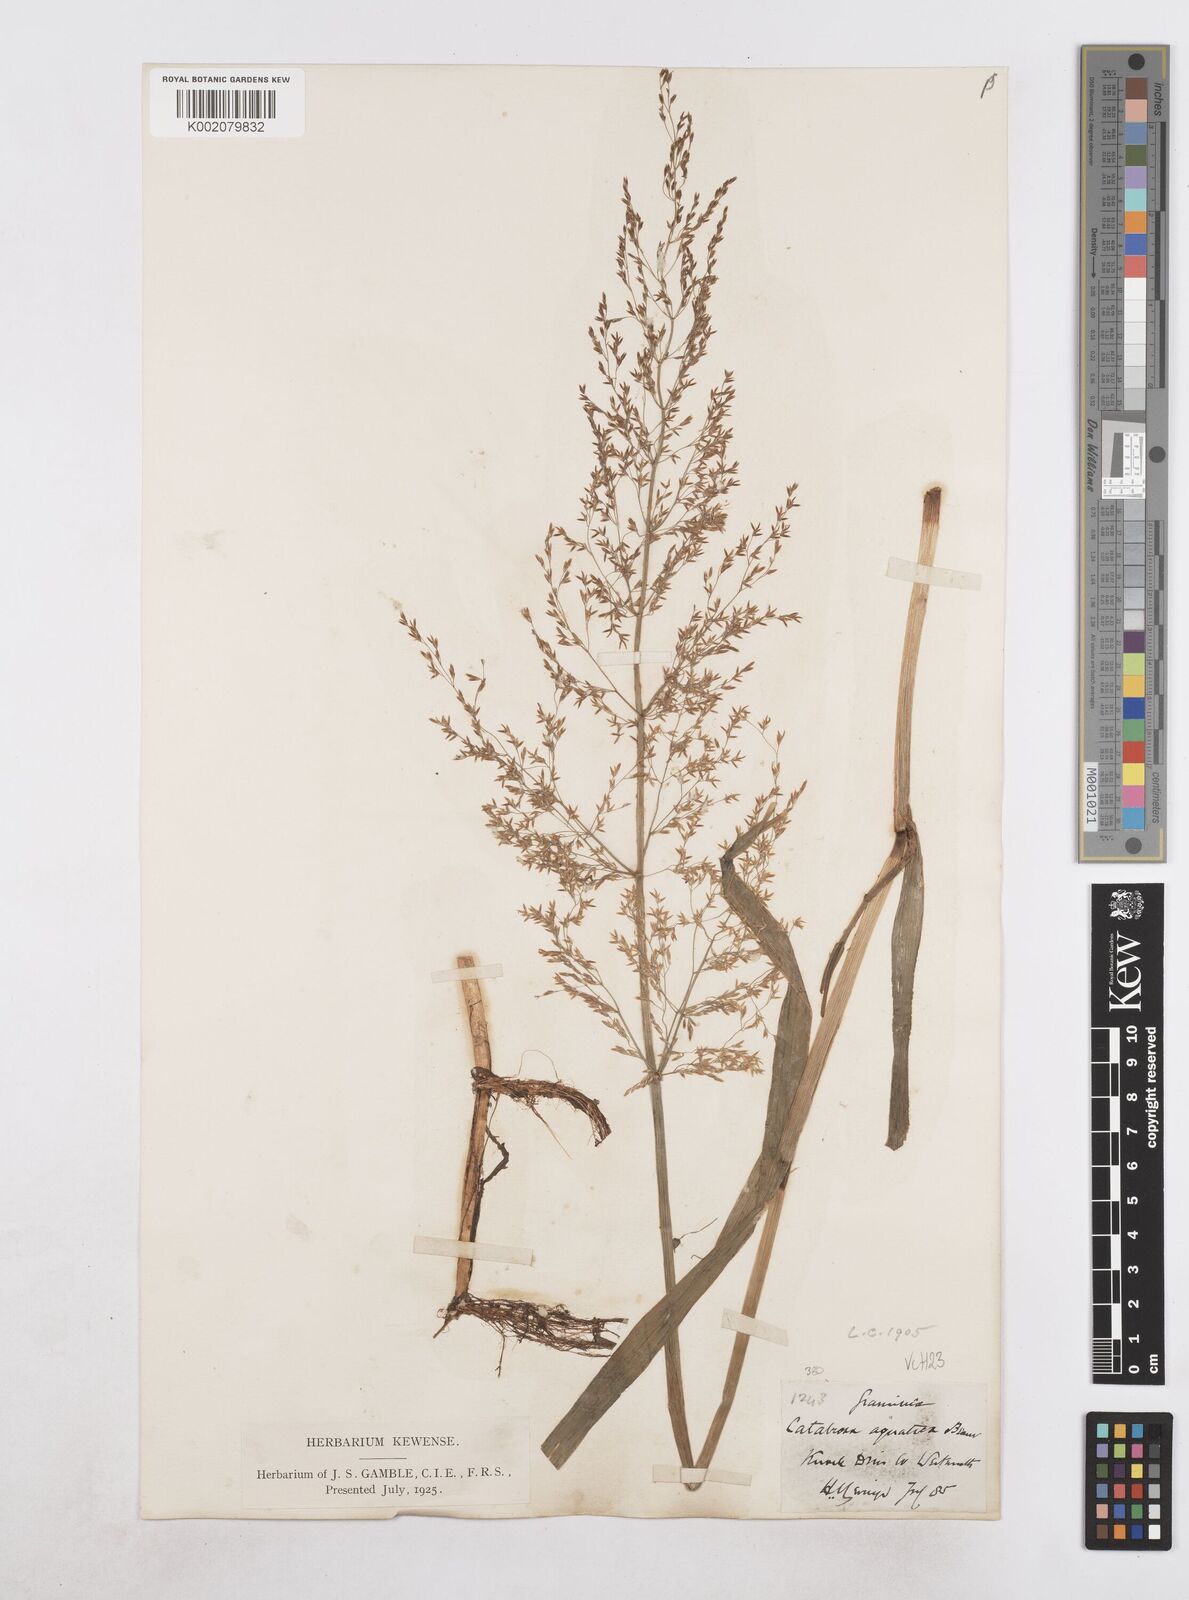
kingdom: Plantae
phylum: Tracheophyta
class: Liliopsida
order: Poales
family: Poaceae
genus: Catabrosa
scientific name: Catabrosa aquatica
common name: Whorl-grass
